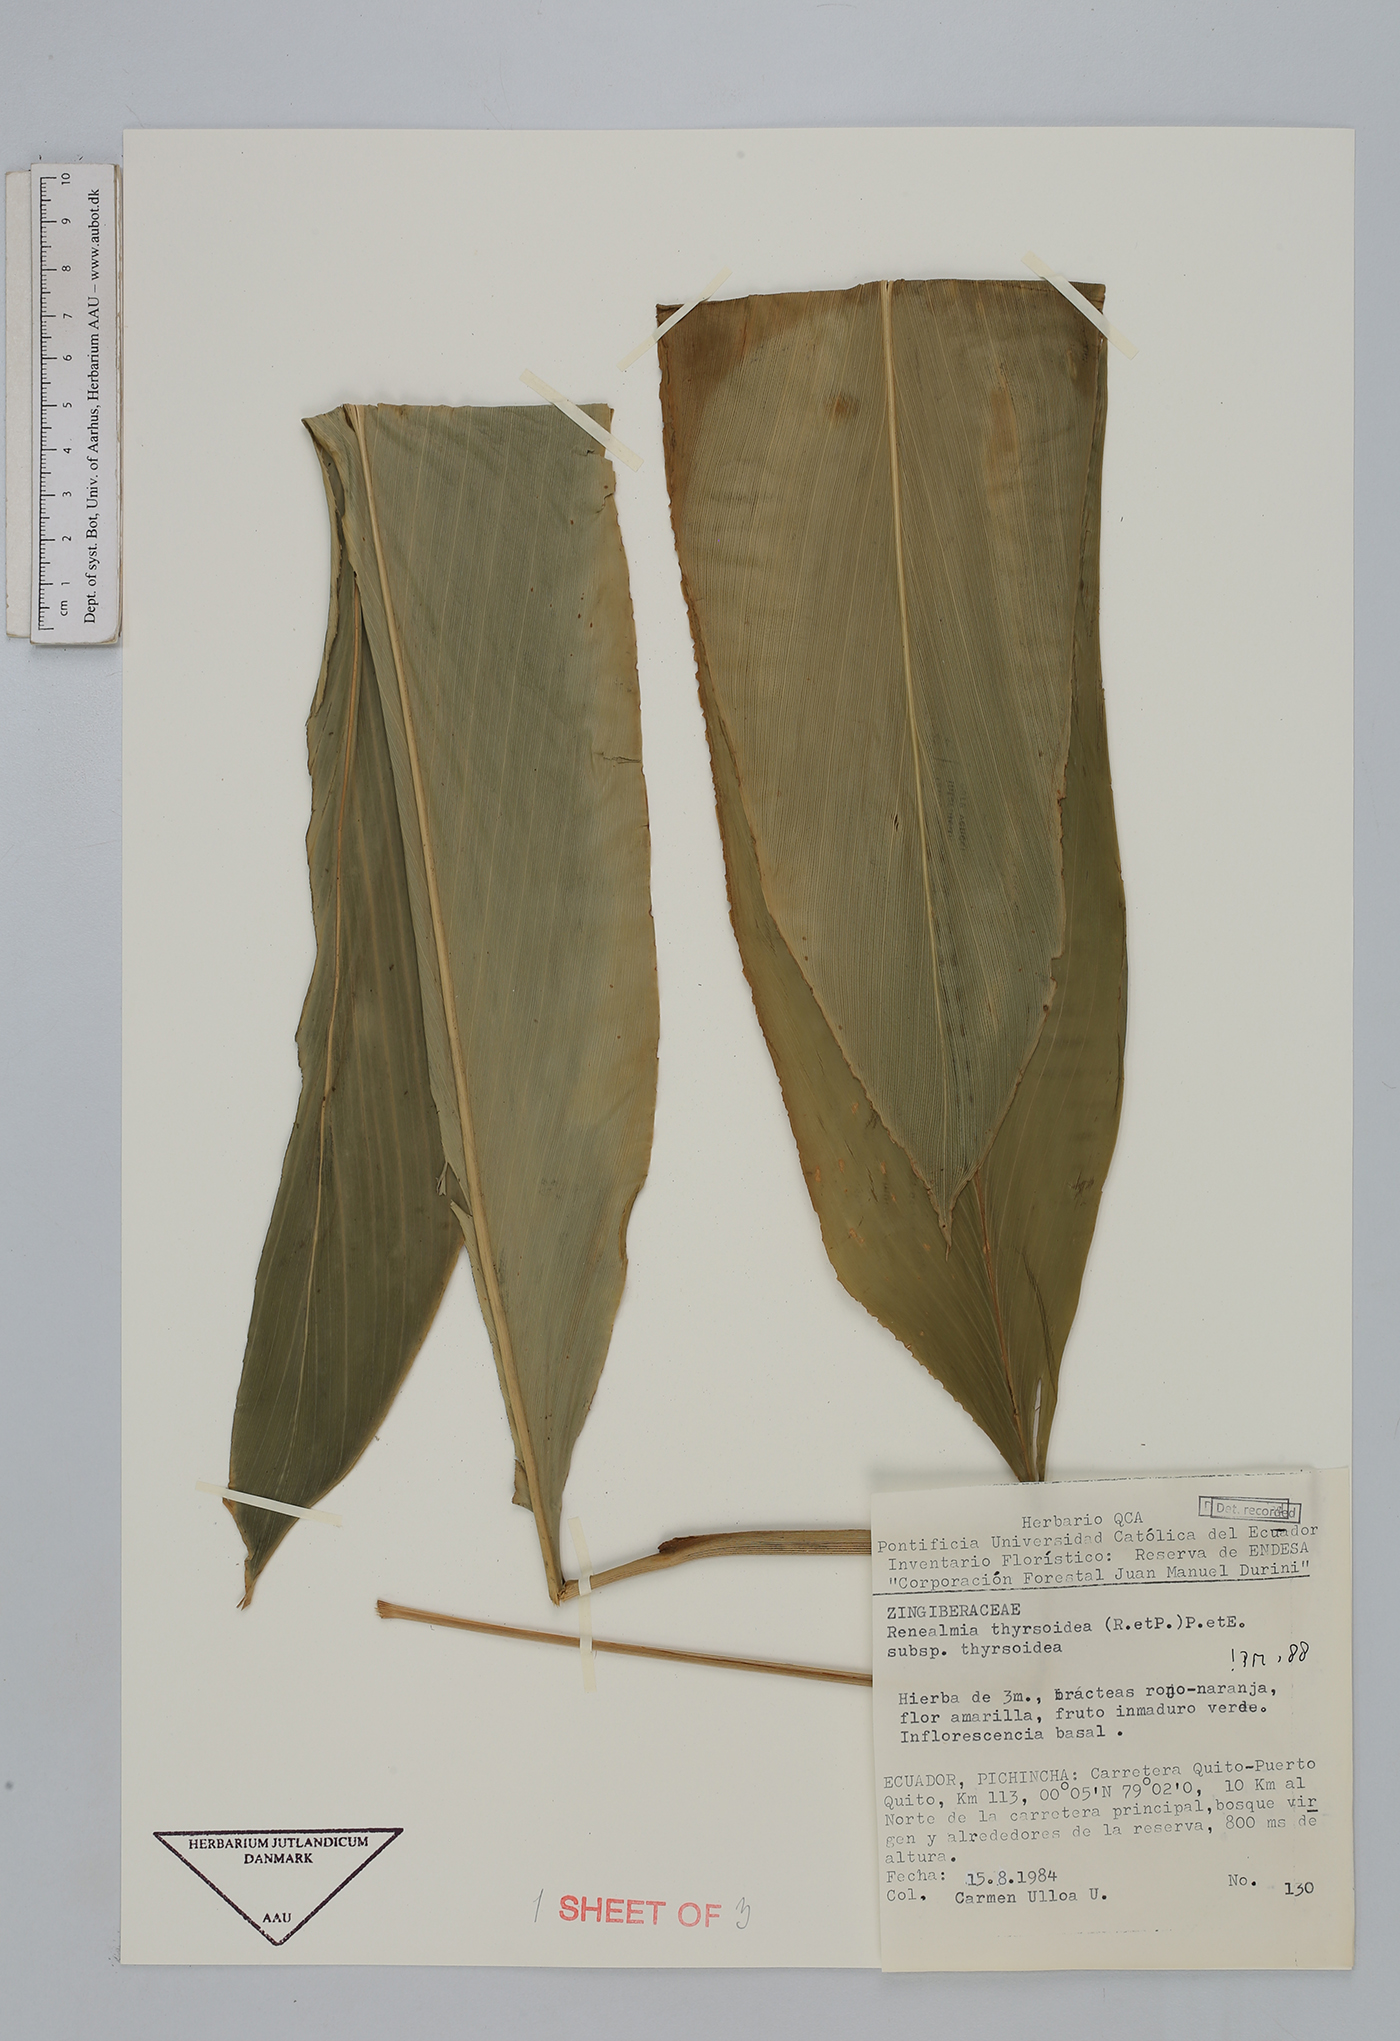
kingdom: Plantae
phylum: Tracheophyta
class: Liliopsida
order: Zingiberales
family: Zingiberaceae
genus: Renealmia
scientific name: Renealmia thyrsoidea
